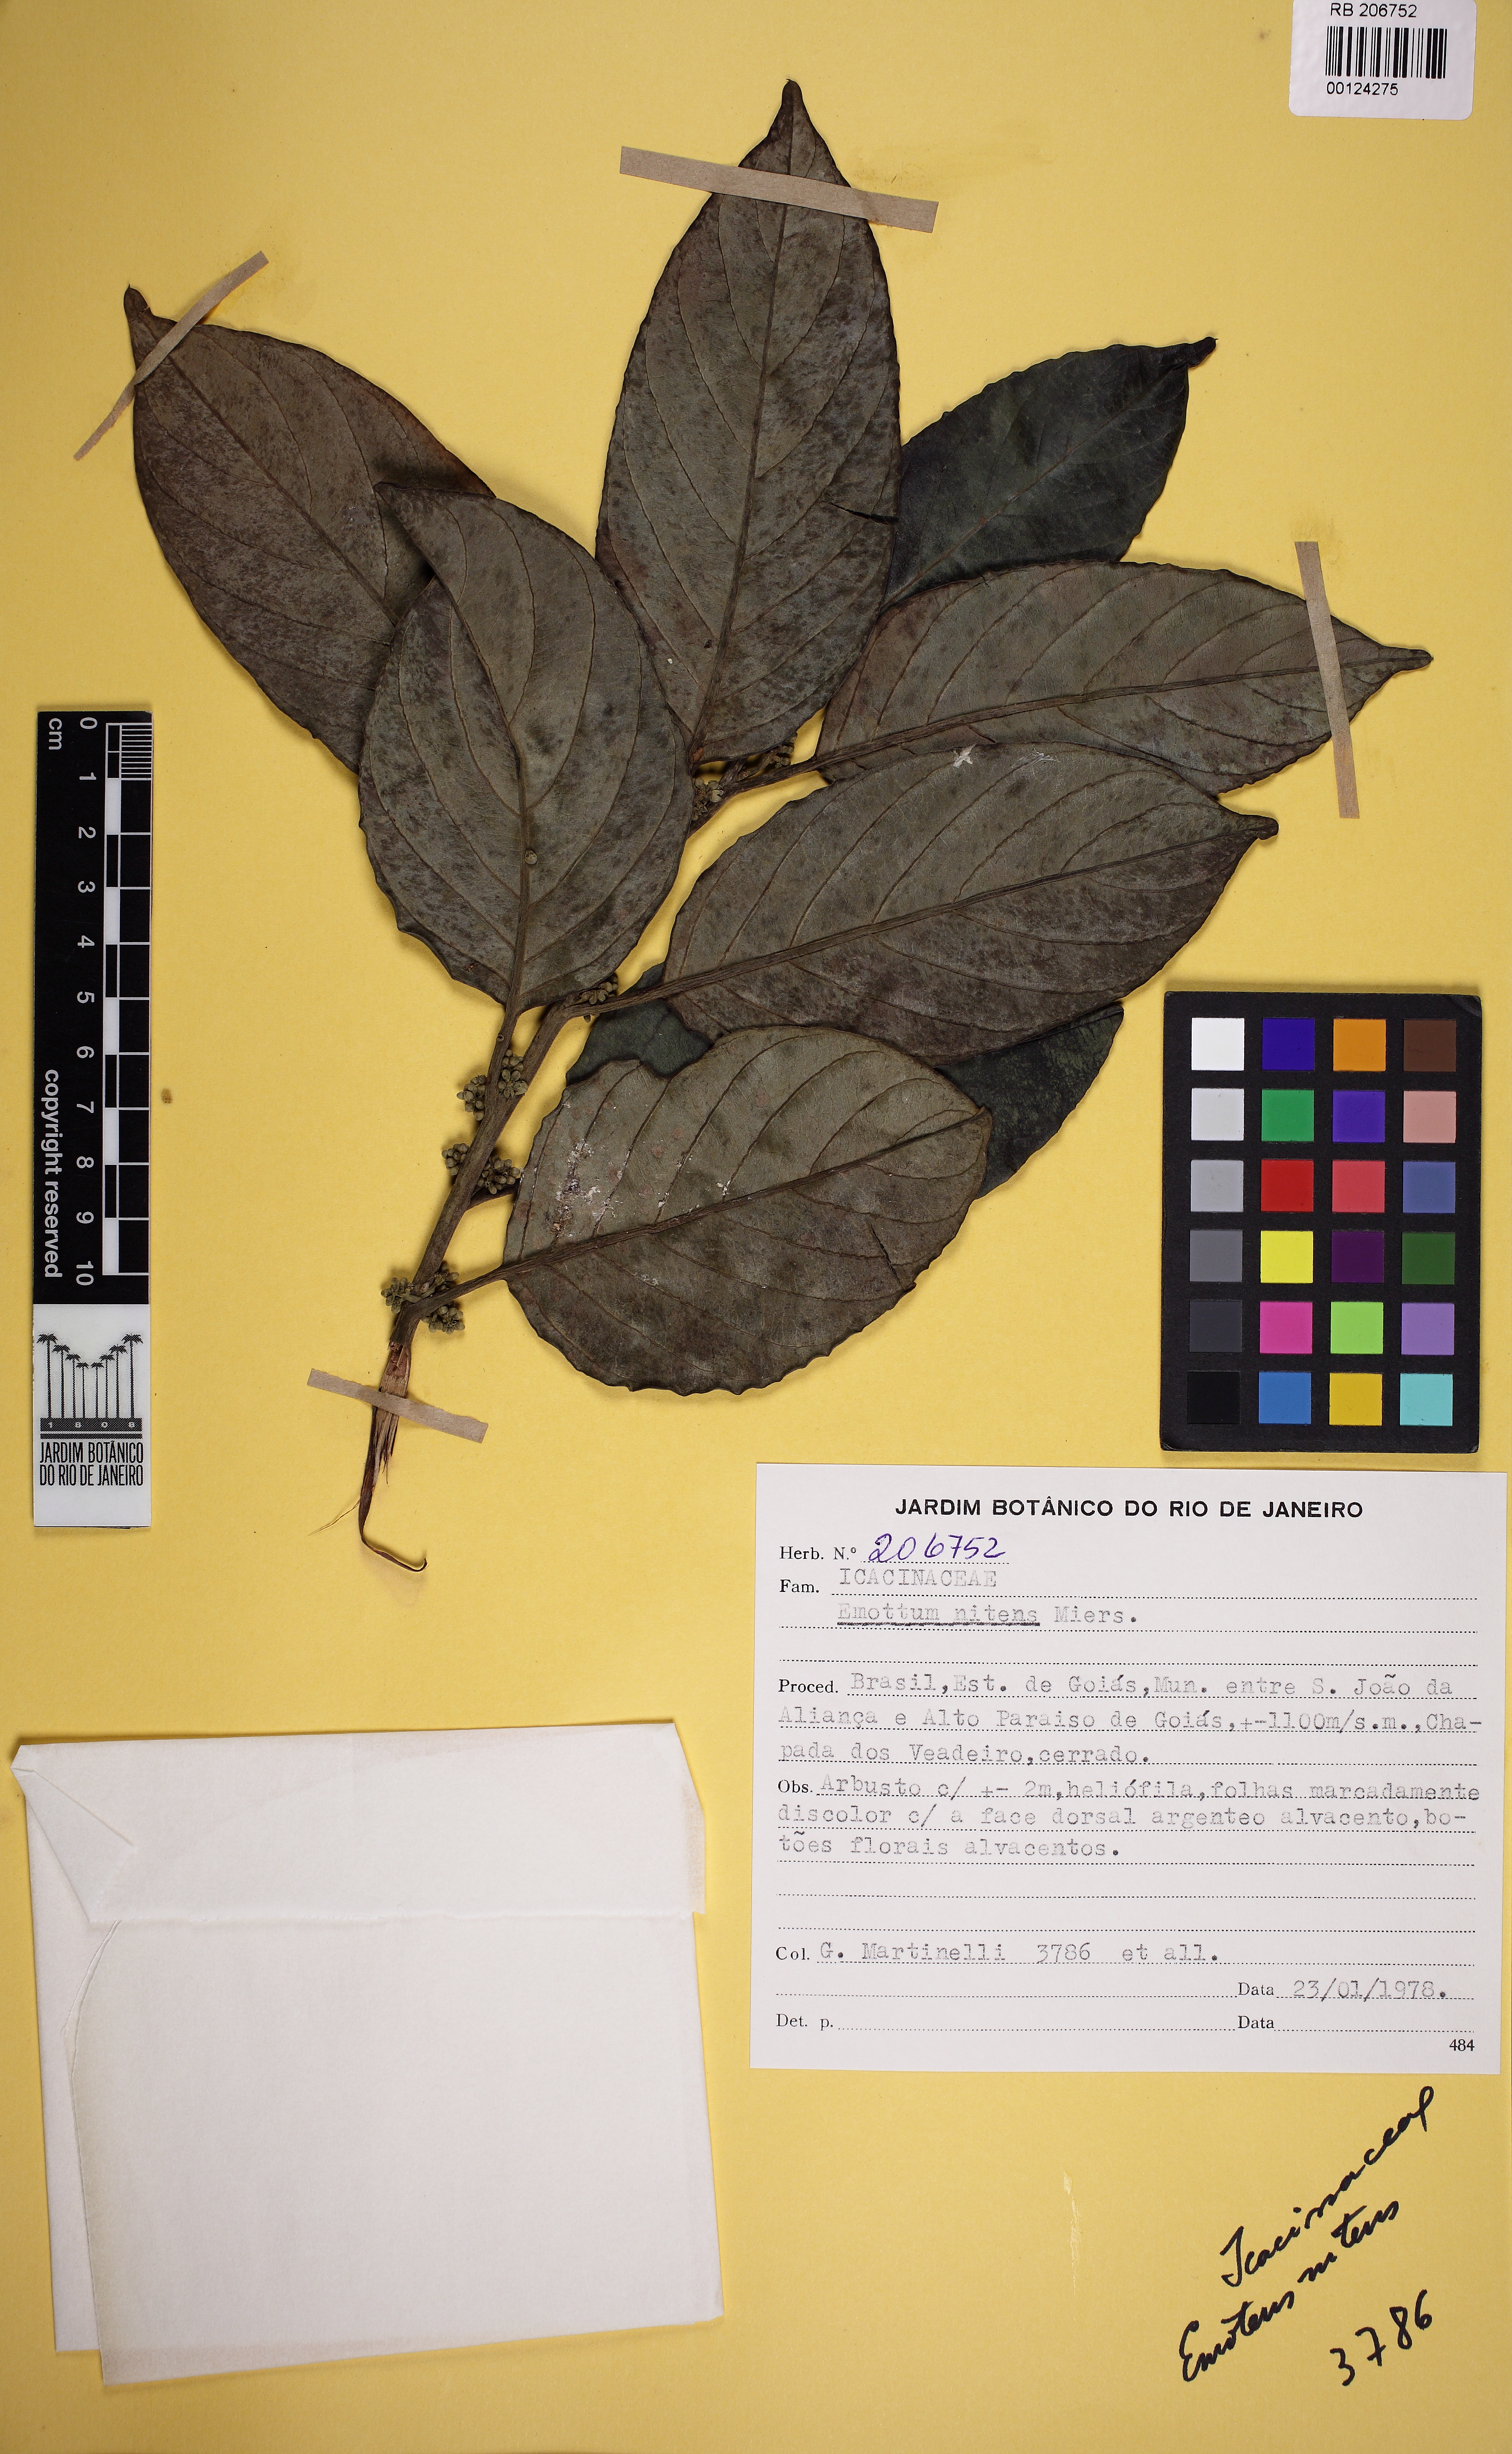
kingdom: Plantae
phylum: Tracheophyta
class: Magnoliopsida
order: Metteniusales
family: Metteniusaceae
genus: Emmotum
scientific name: Emmotum nitens
